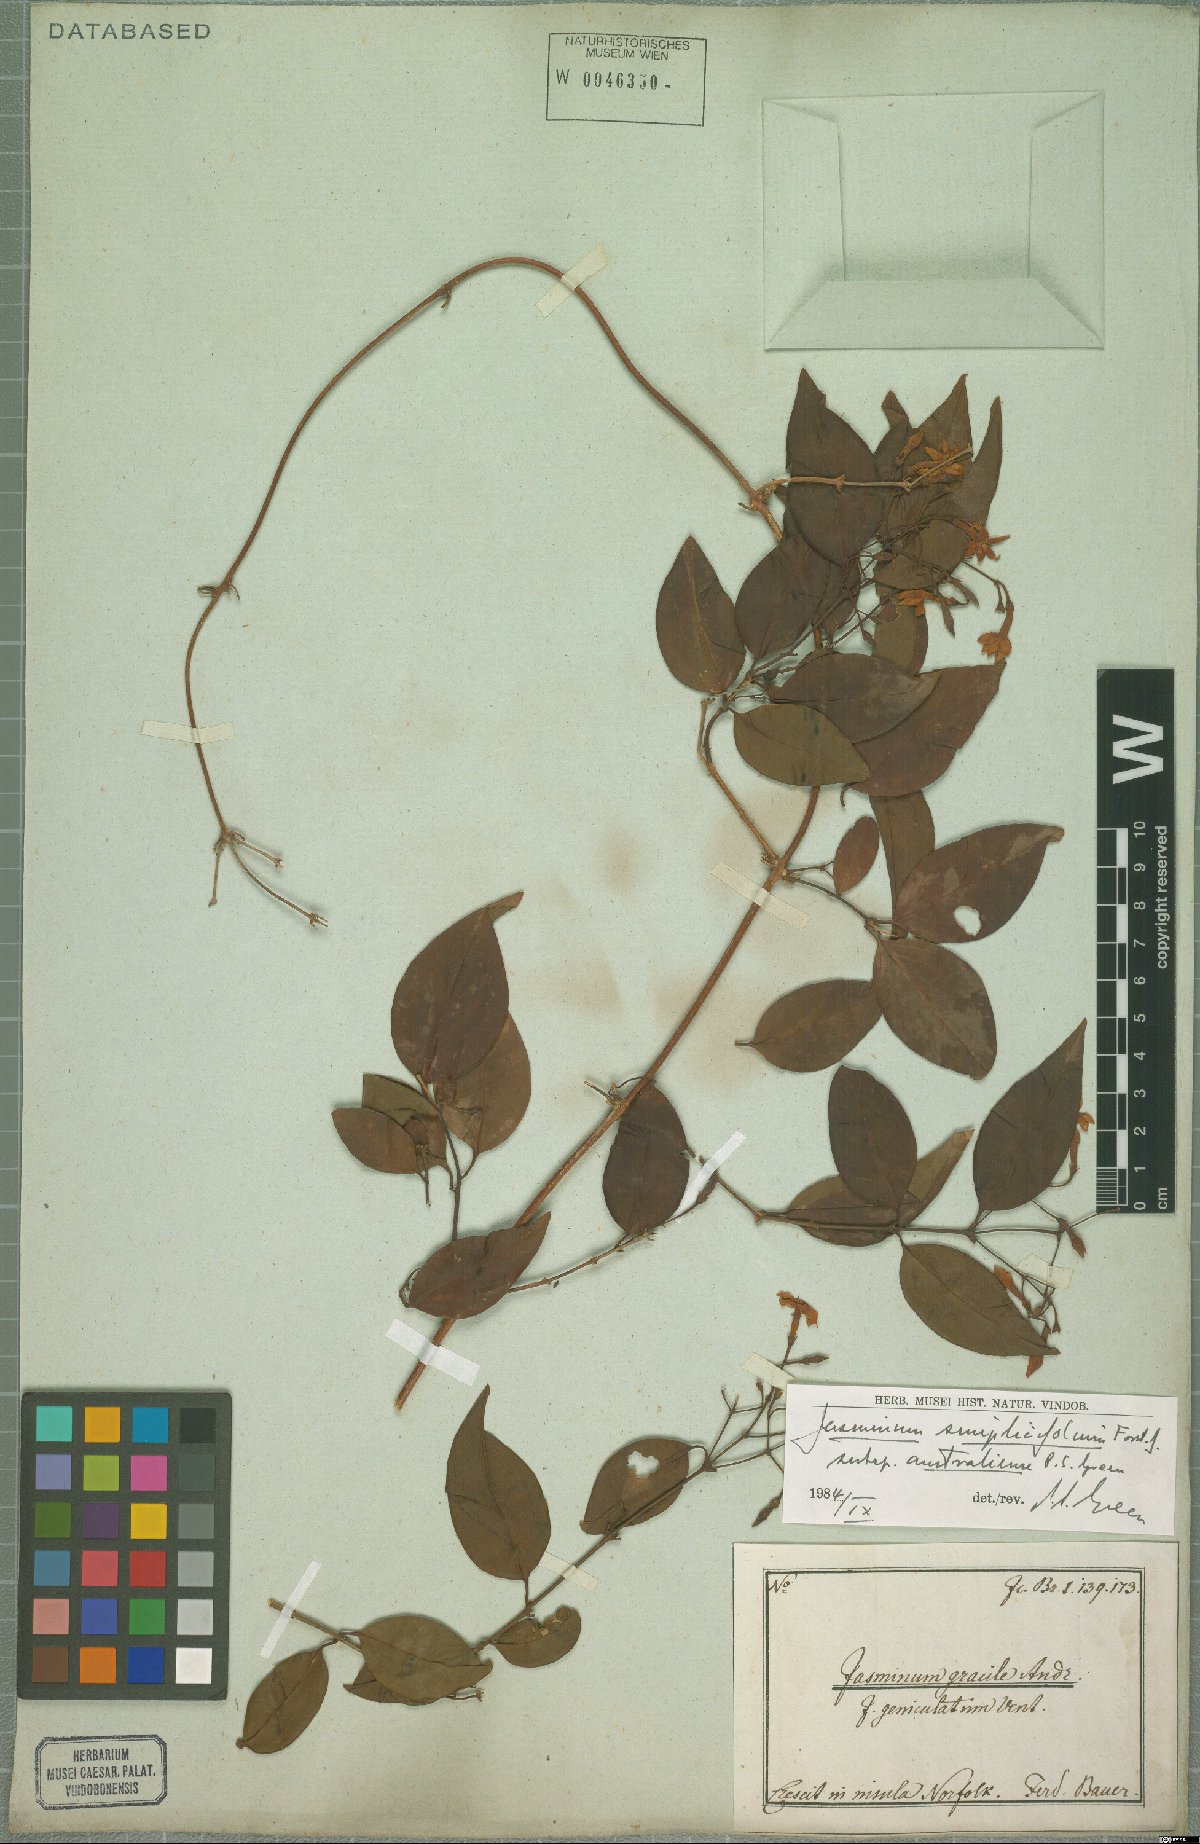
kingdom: Plantae
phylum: Tracheophyta
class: Magnoliopsida
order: Lamiales
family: Oleaceae
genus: Jasminum
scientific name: Jasminum simplicifolium
